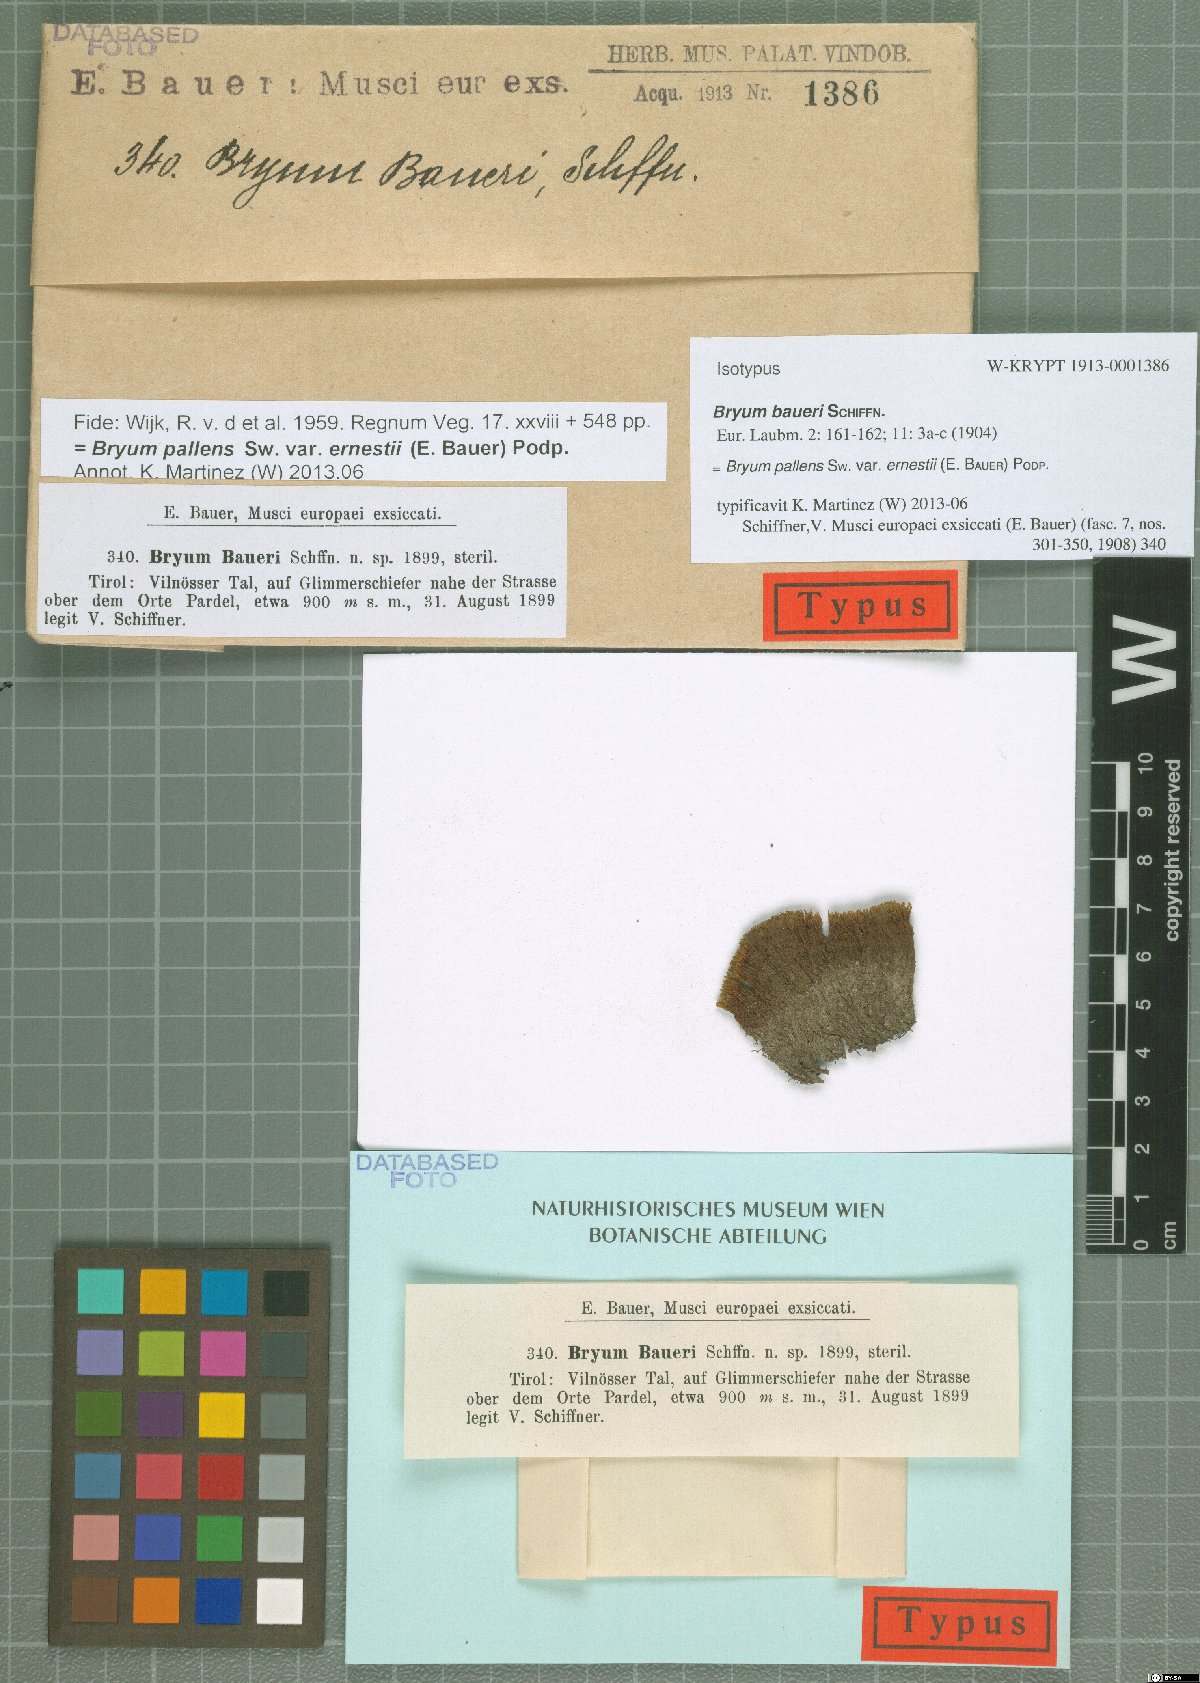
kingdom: Plantae
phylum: Bryophyta
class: Bryopsida
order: Bryales
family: Bryaceae
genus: Ptychostomum
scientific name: Ptychostomum pallens
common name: Pale thread-moss
